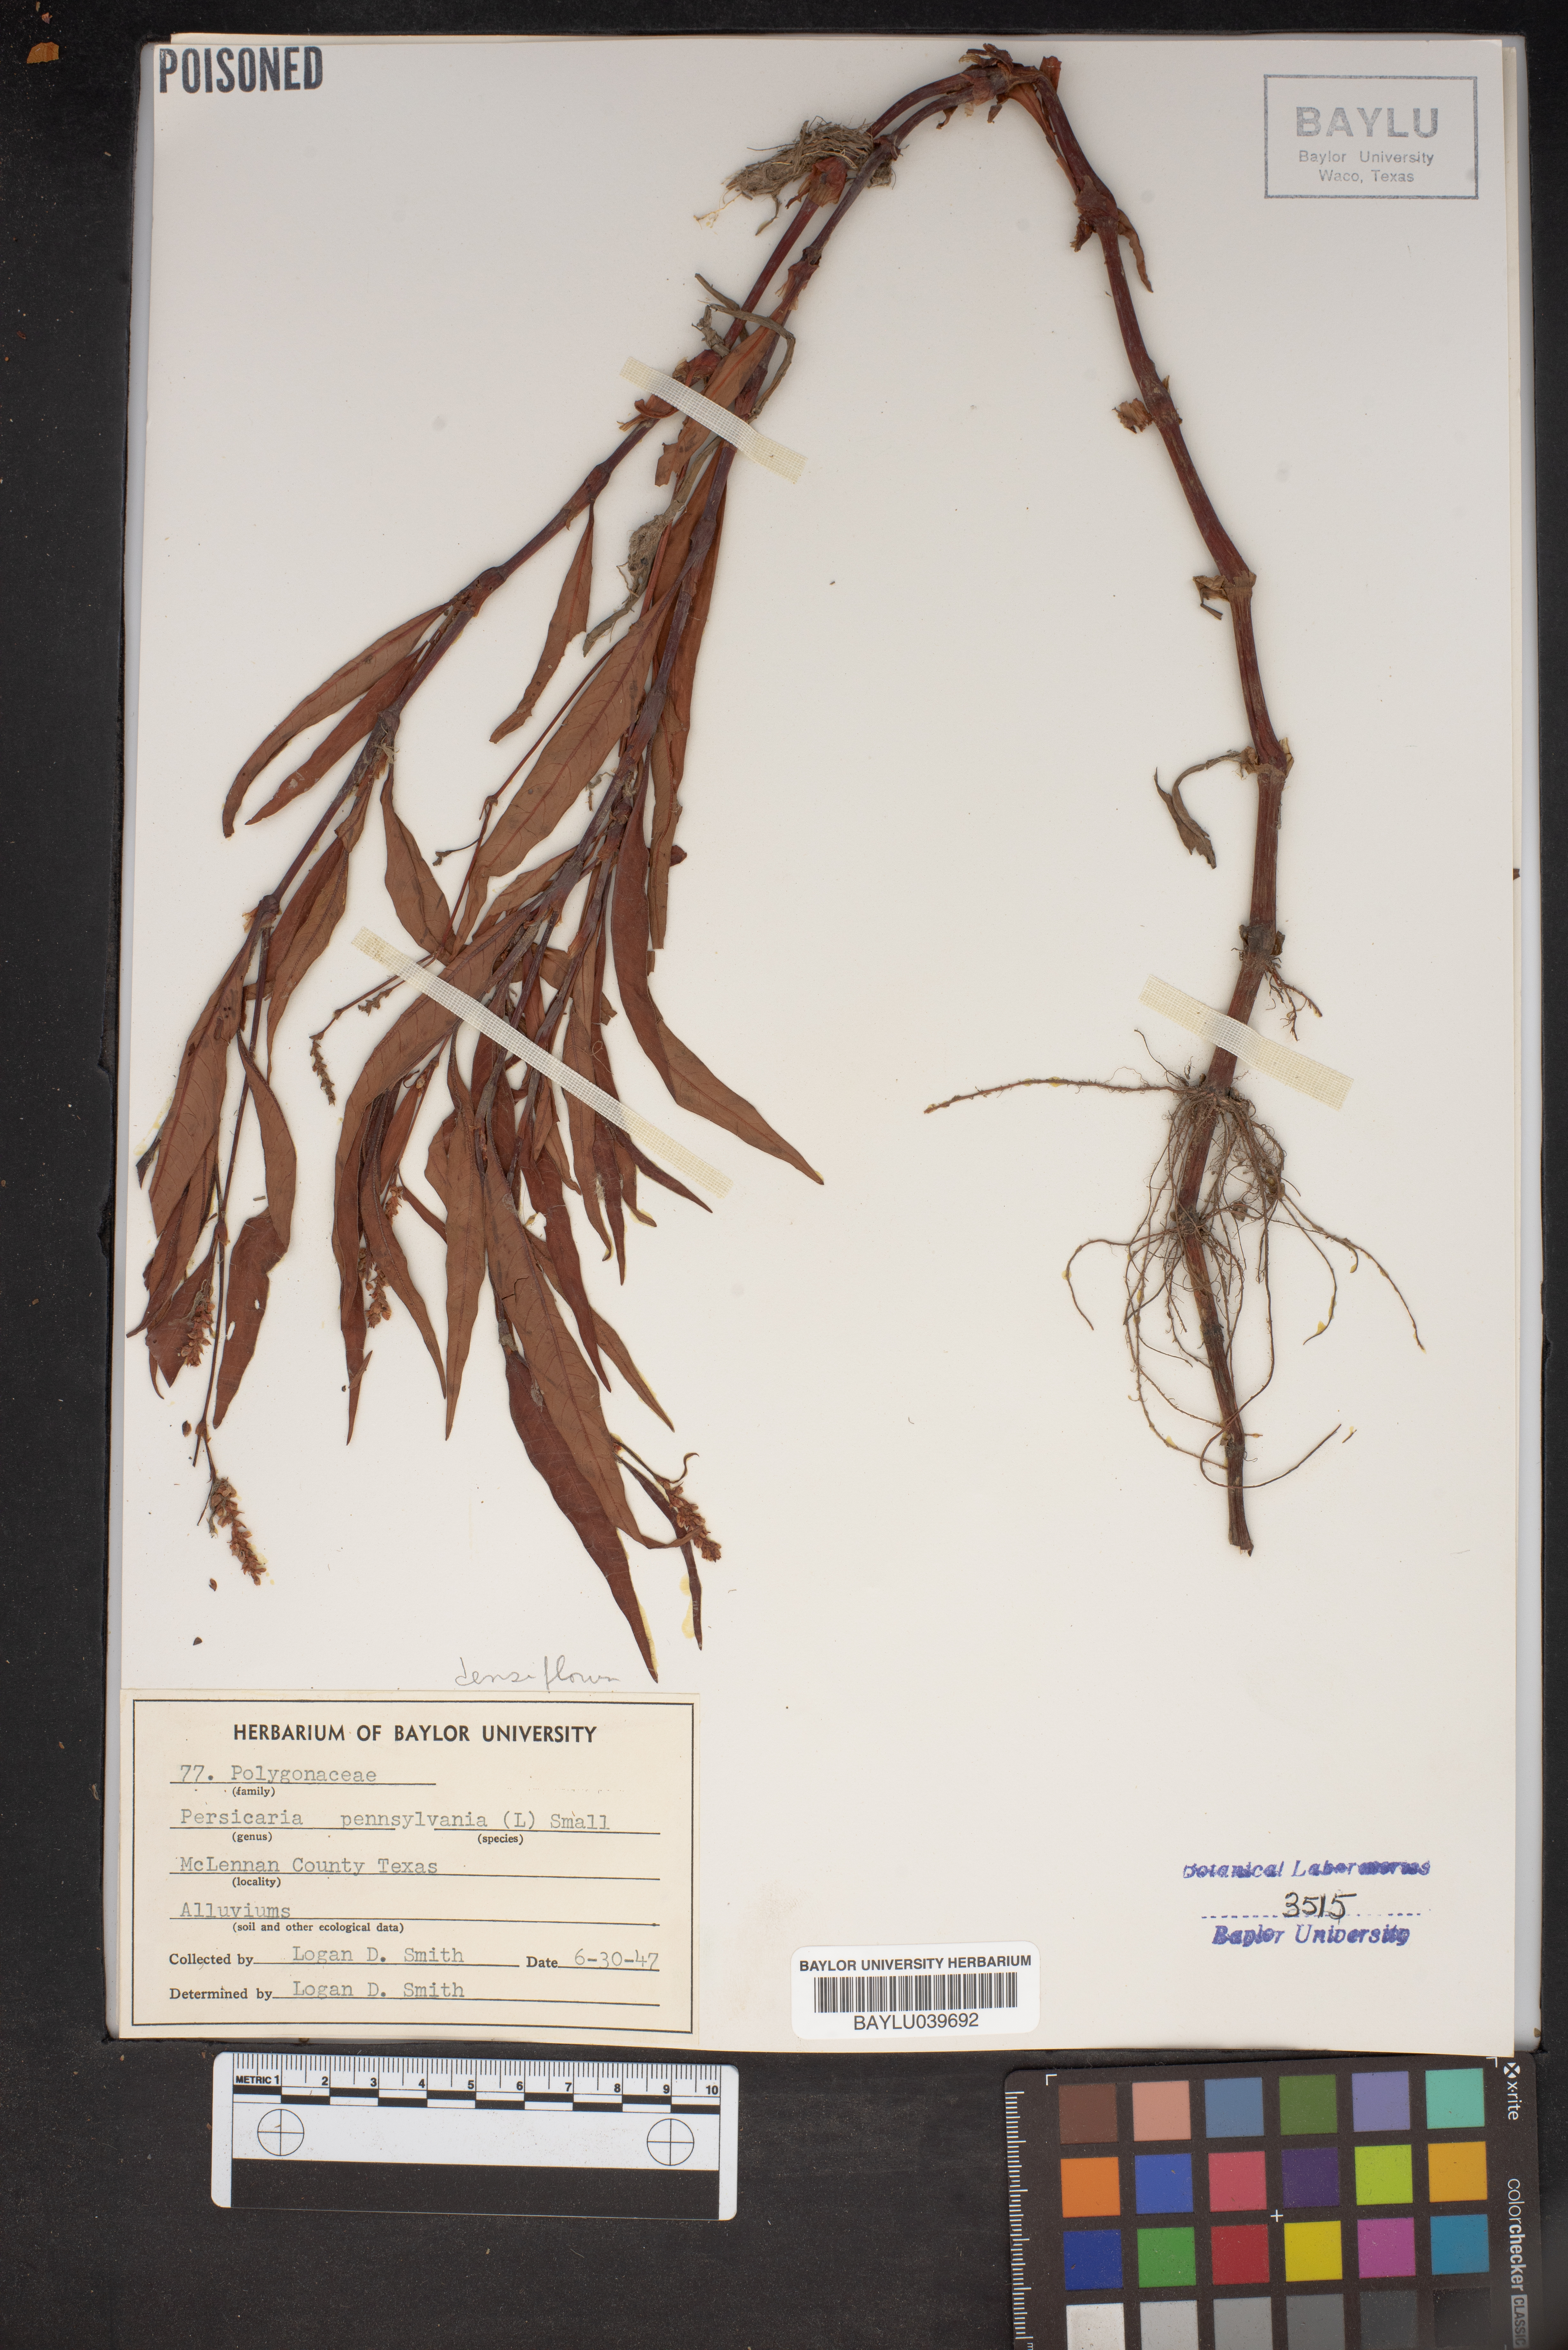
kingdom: Plantae
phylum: Tracheophyta
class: Magnoliopsida
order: Caryophyllales
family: Polygonaceae
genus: Persicaria
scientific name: Persicaria pensylvanica
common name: Pinkweed
